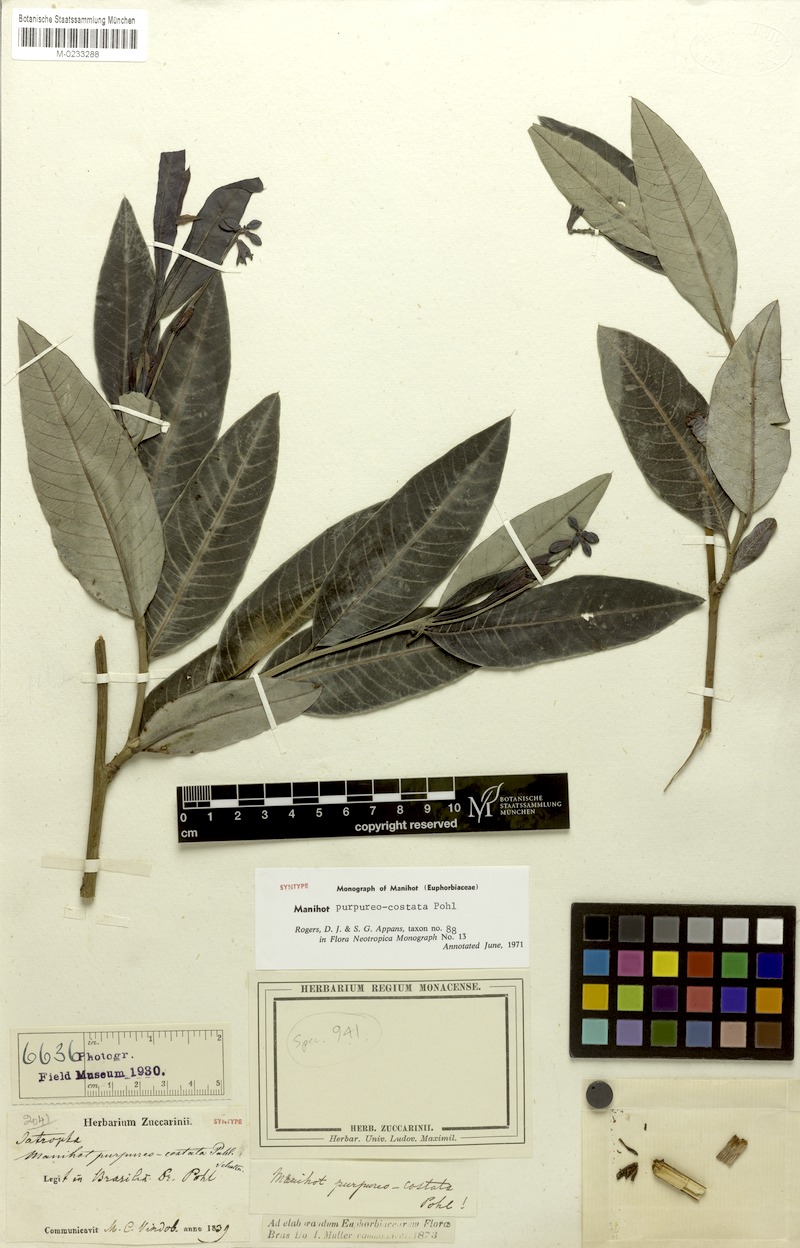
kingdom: Plantae
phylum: Tracheophyta
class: Magnoliopsida
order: Malpighiales
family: Euphorbiaceae
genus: Manihot
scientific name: Manihot purpureocostata
